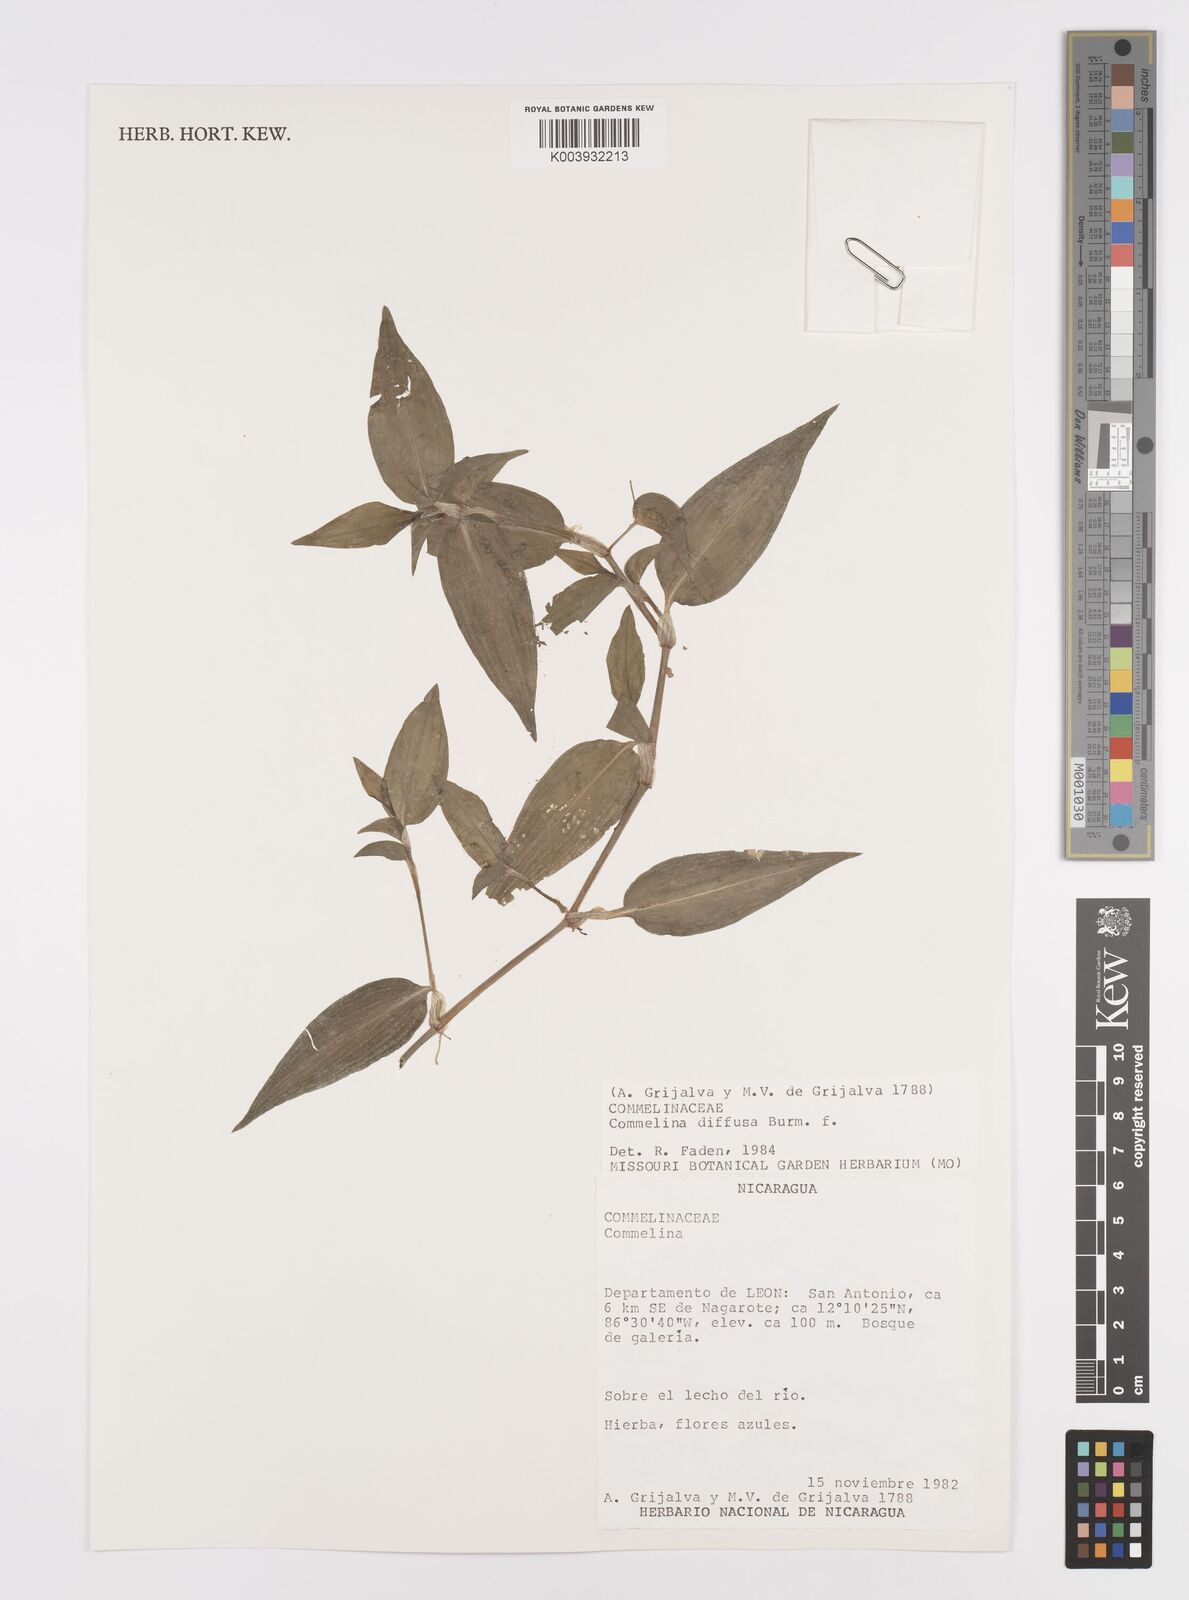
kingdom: Plantae
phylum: Tracheophyta
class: Liliopsida
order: Commelinales
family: Commelinaceae
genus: Commelina
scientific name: Commelina diffusa
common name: Climbing dayflower
